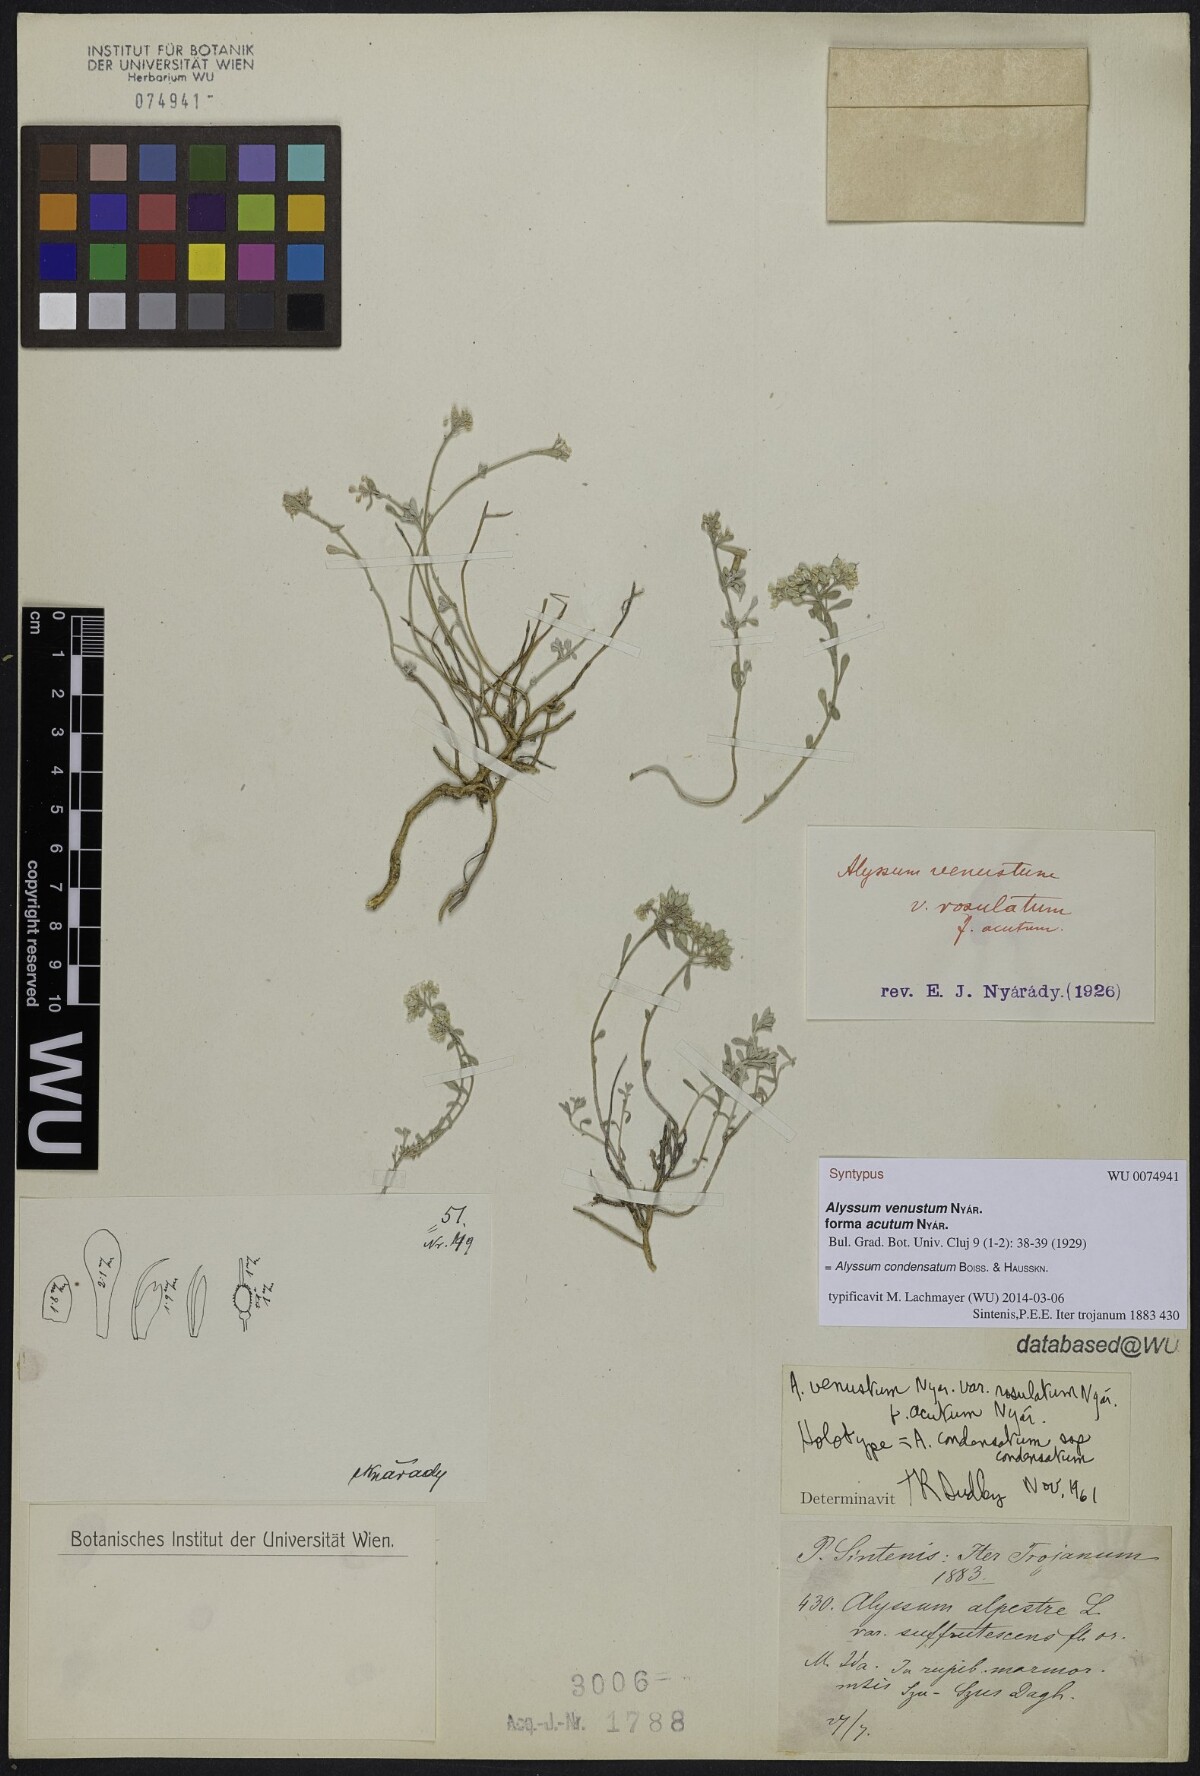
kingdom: Plantae
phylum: Tracheophyta
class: Magnoliopsida
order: Brassicales
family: Brassicaceae
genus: Odontarrhena
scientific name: Odontarrhena condensata
